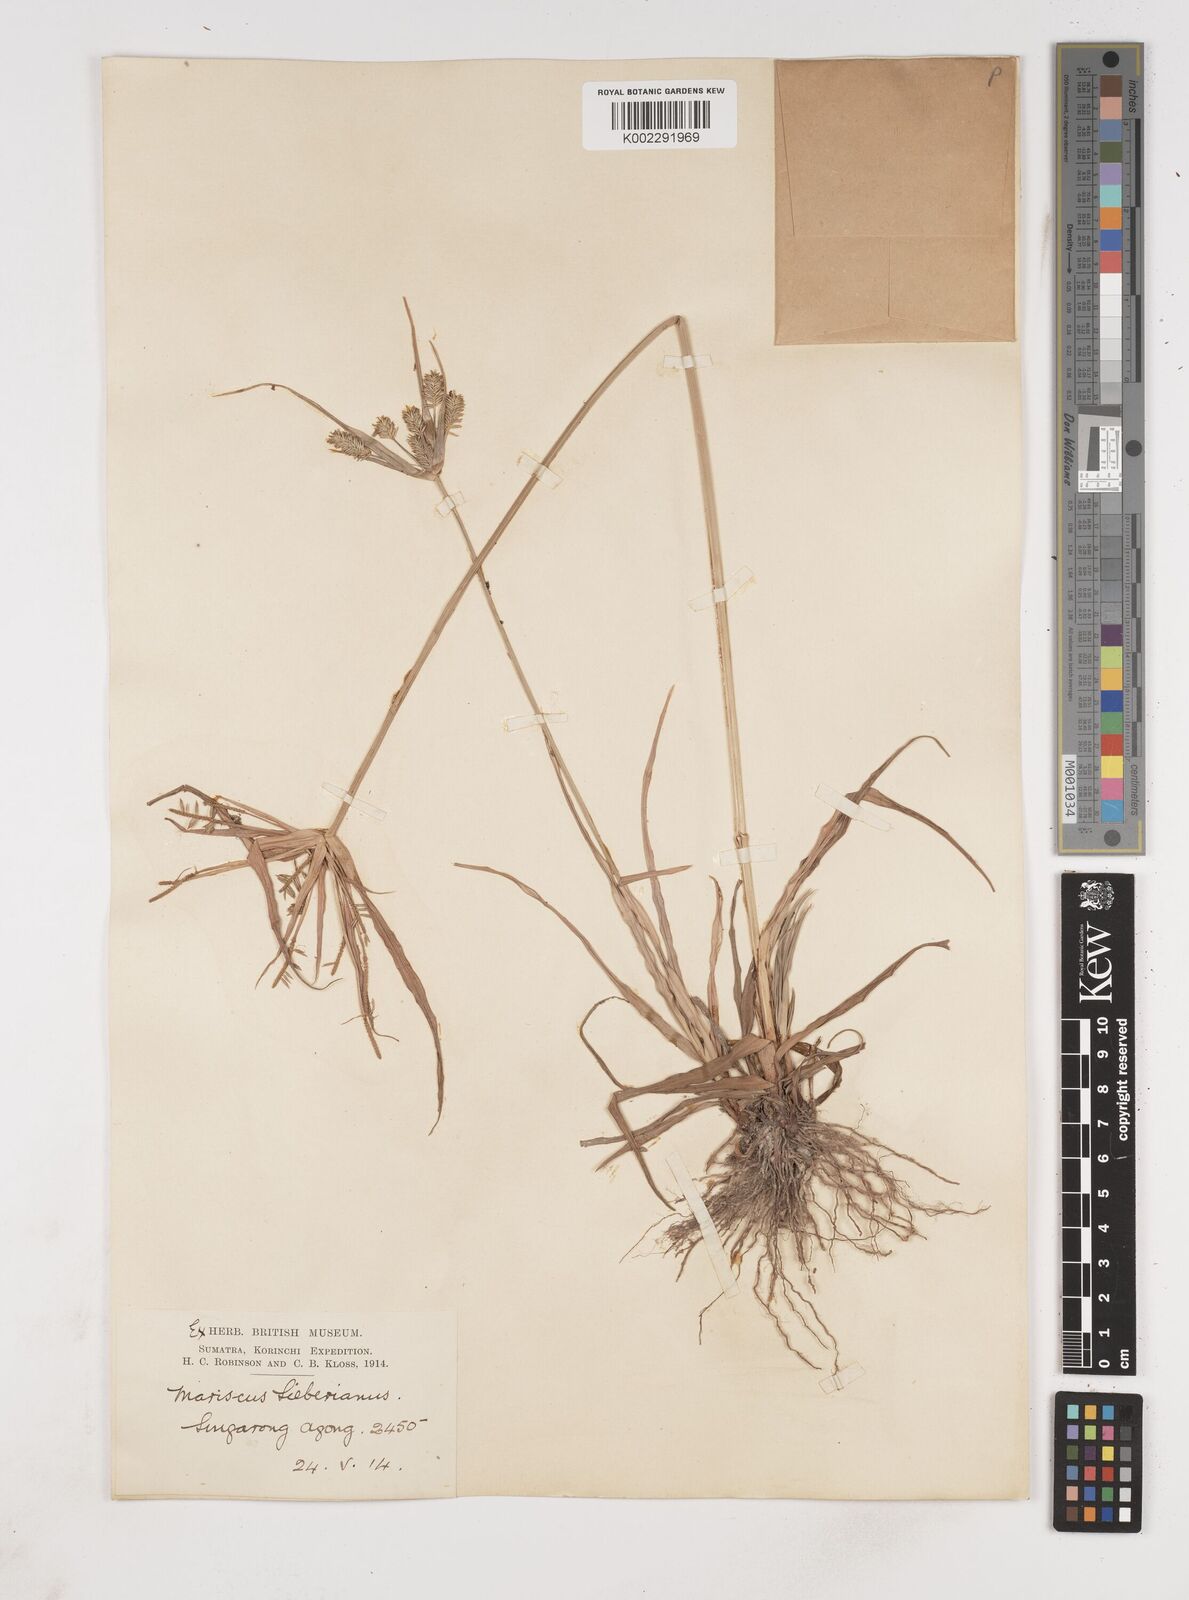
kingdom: Plantae
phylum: Tracheophyta
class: Liliopsida
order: Poales
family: Cyperaceae
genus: Cyperus
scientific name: Cyperus cyperoides
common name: Pacific island flat sedge
